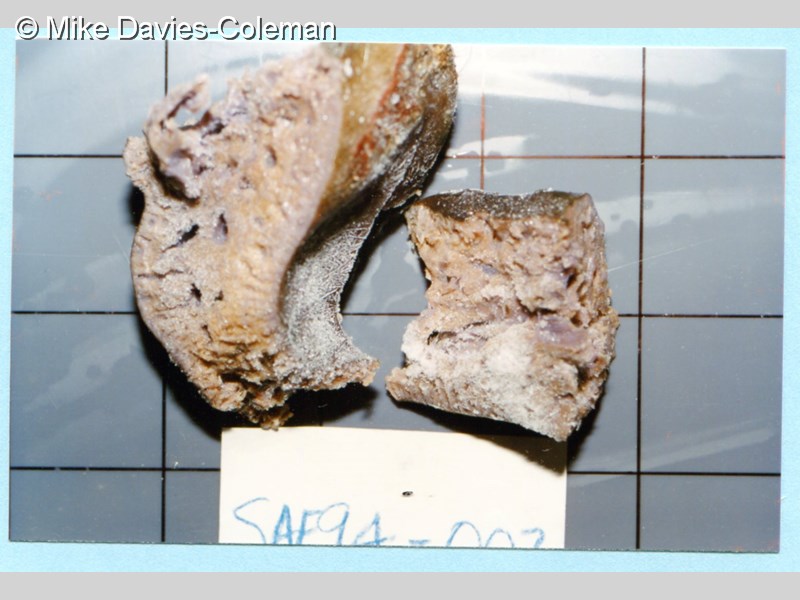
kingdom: Animalia
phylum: Porifera
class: Demospongiae
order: Clionaida
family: Spirastrellidae
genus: Spirastrella
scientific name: Spirastrella
